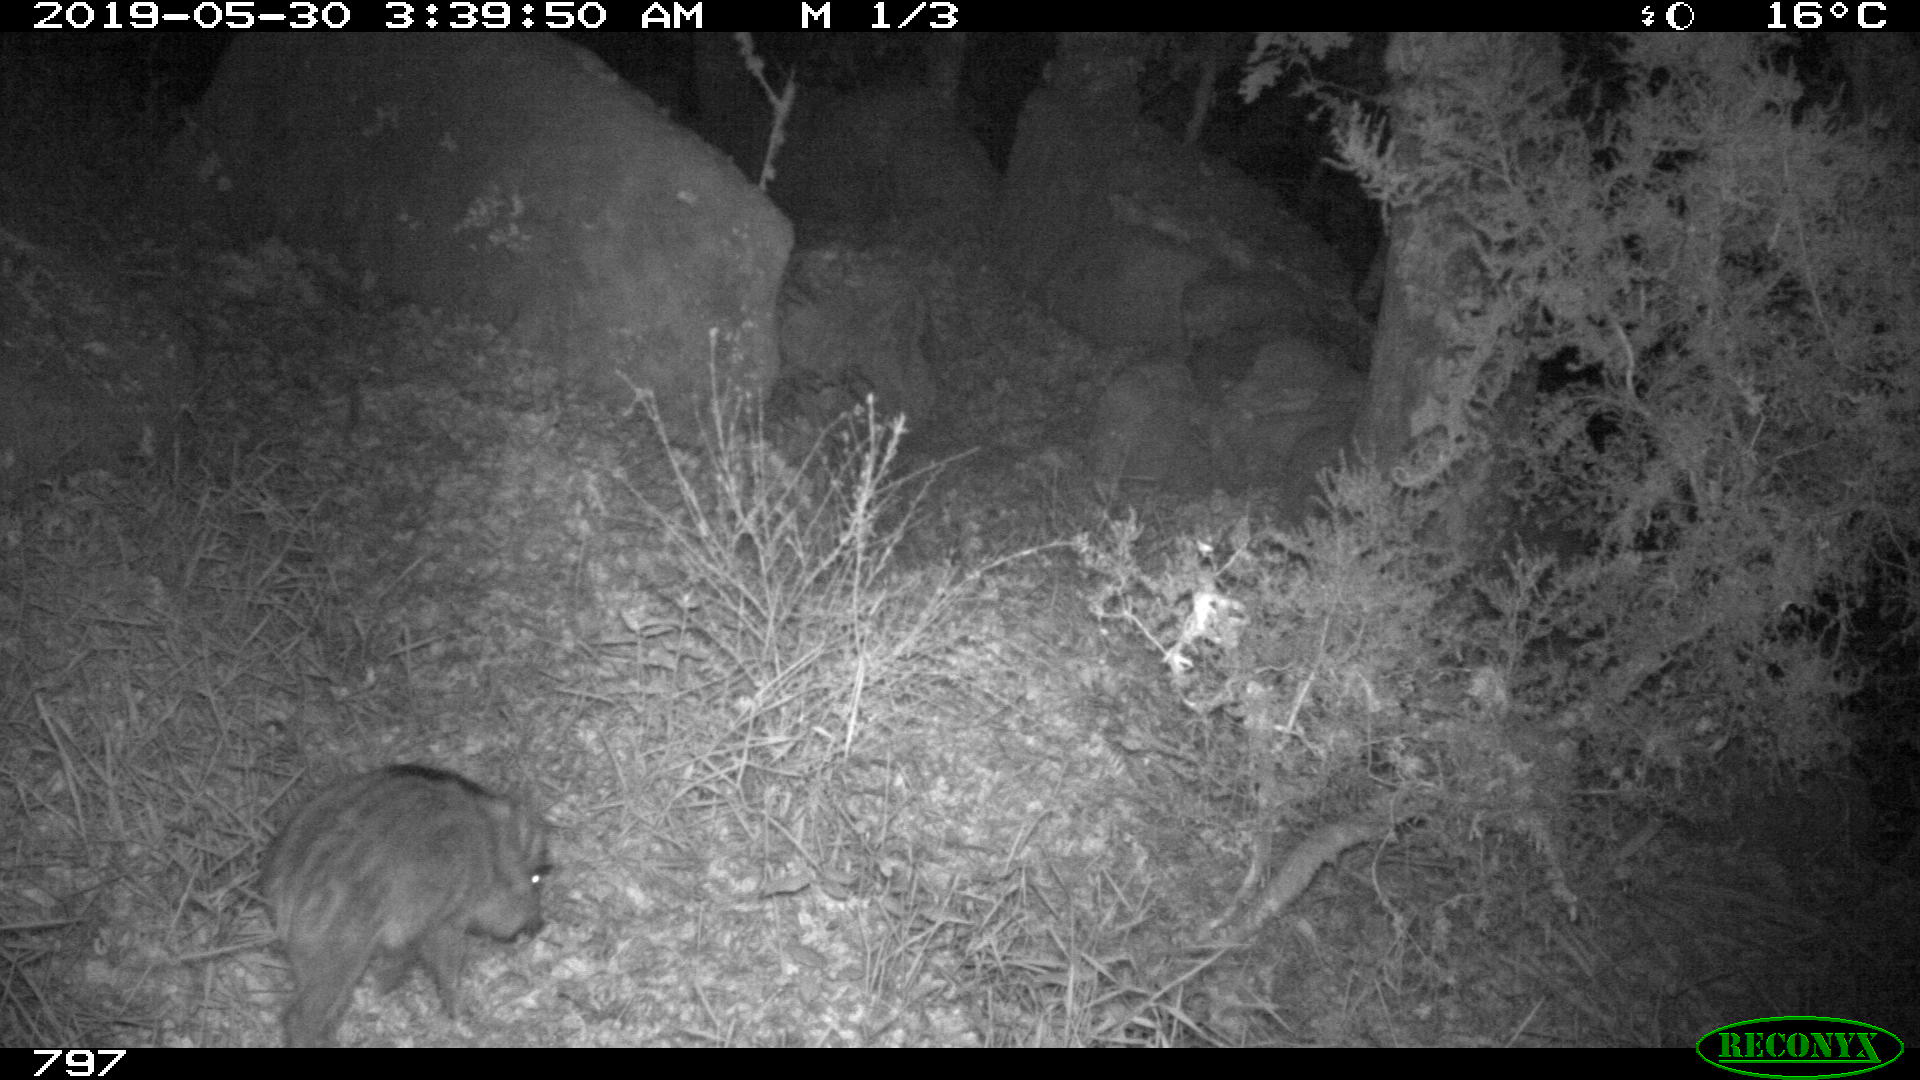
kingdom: Animalia
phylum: Chordata
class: Mammalia
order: Artiodactyla
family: Suidae
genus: Sus
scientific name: Sus scrofa
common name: Wild boar
